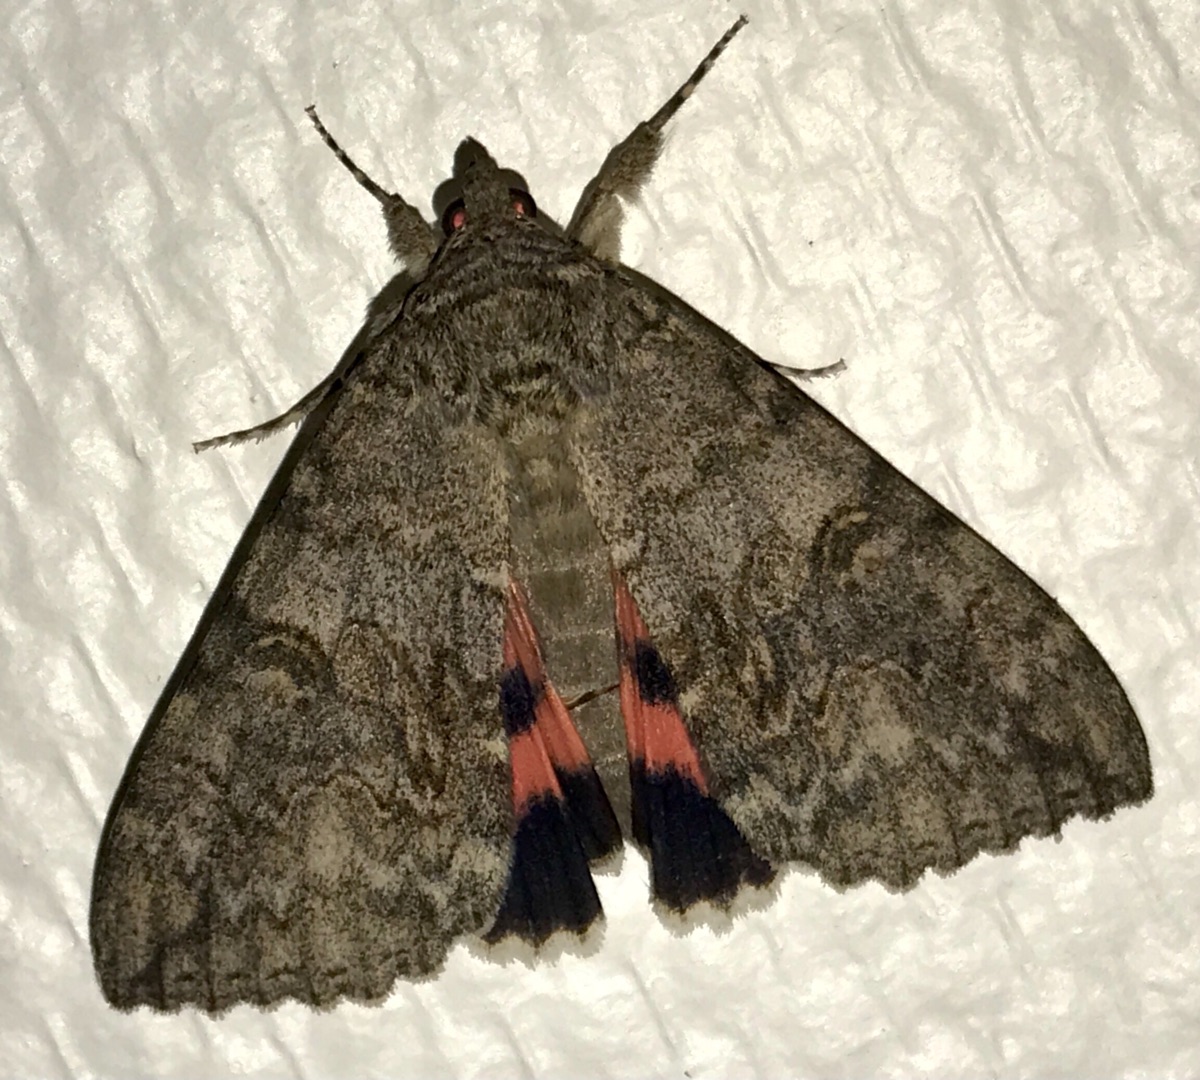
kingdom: Animalia
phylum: Arthropoda
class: Insecta
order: Lepidoptera
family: Erebidae
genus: Catocala
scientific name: Catocala nupta
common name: Rødt ordensbånd
